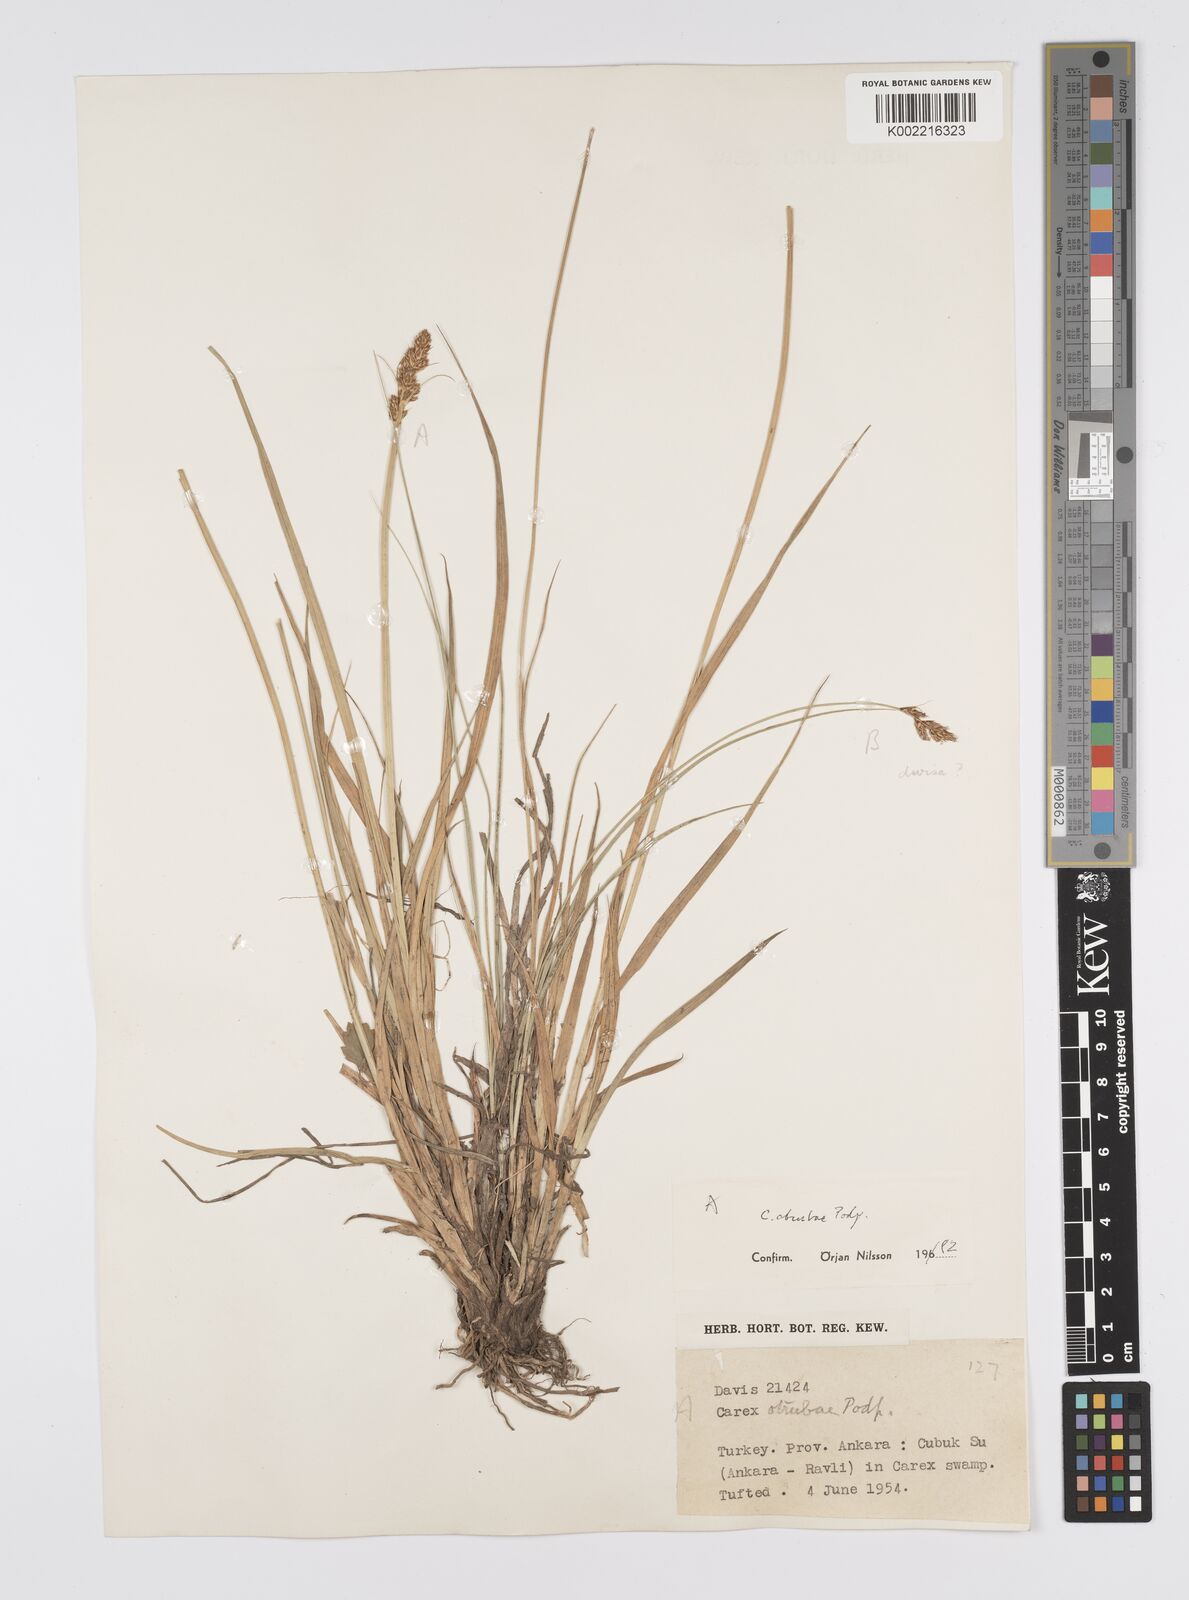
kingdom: Plantae
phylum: Tracheophyta
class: Liliopsida
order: Poales
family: Cyperaceae
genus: Carex
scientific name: Carex otrubae
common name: False fox-sedge
